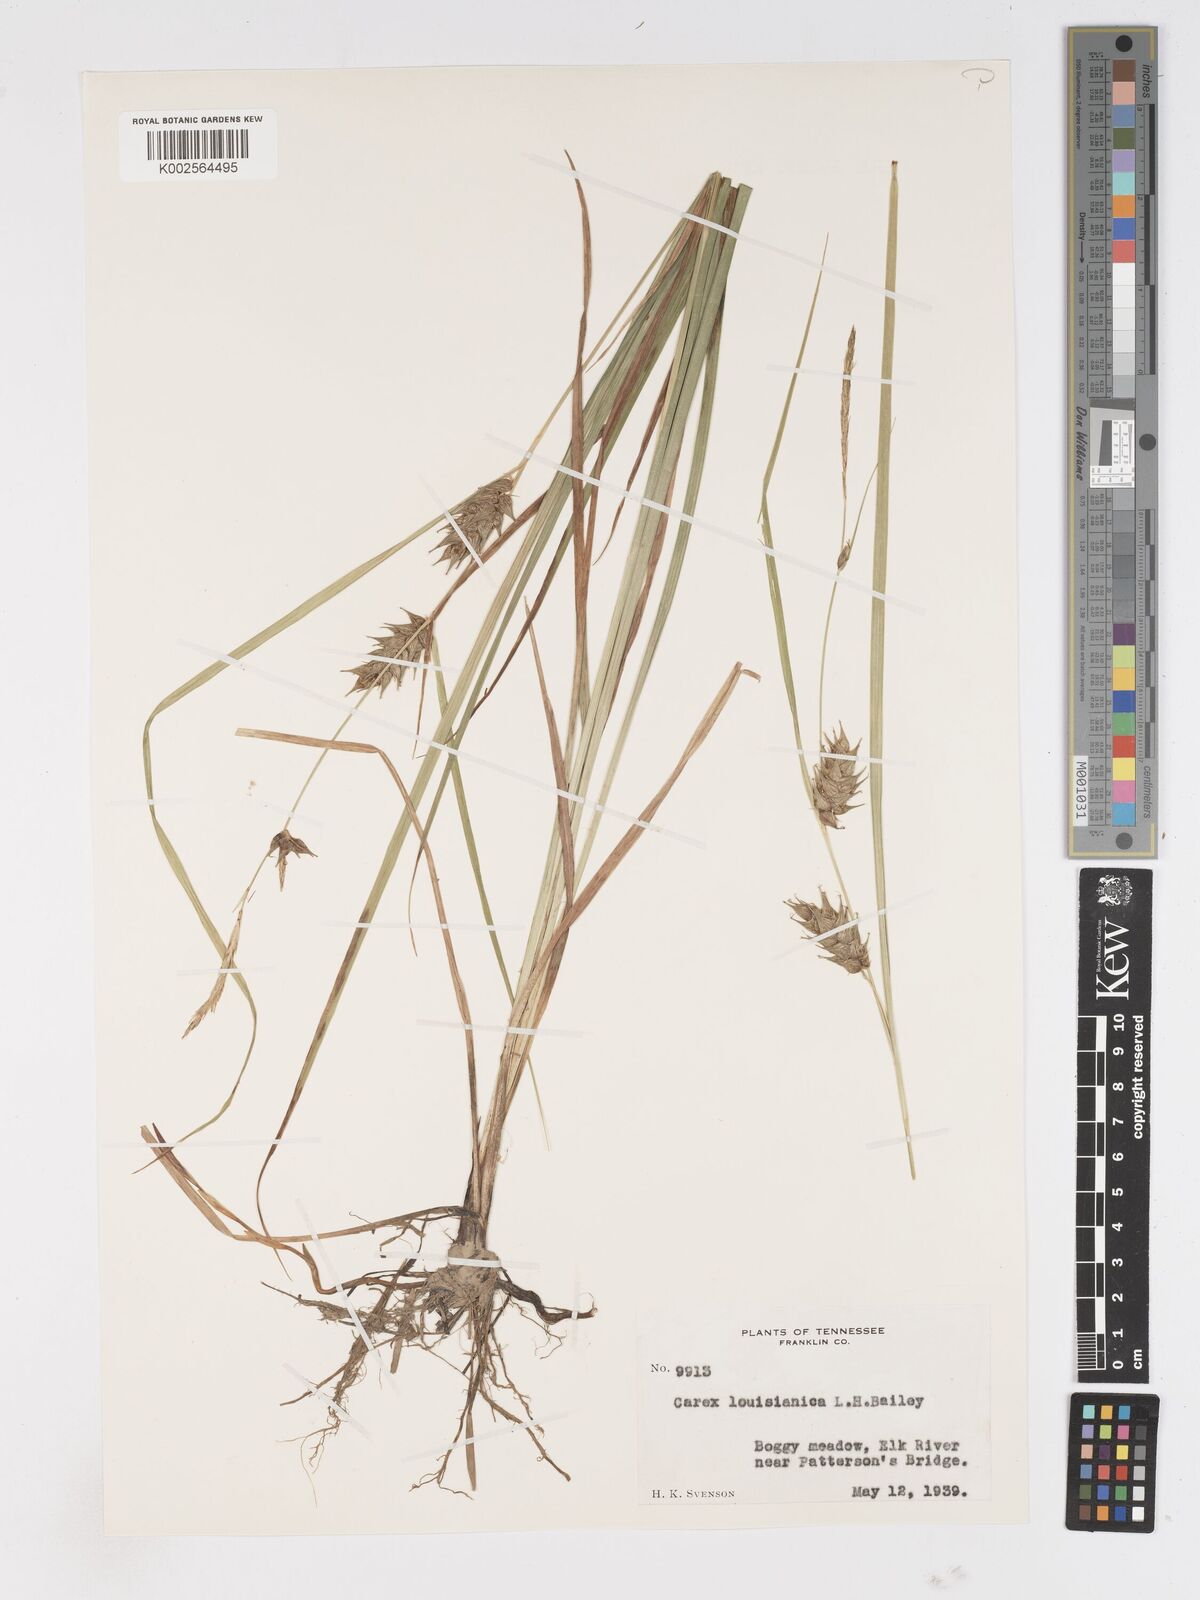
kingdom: Plantae
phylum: Tracheophyta
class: Liliopsida
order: Poales
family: Cyperaceae
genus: Carex
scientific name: Carex louisianica
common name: Louisiana sedge
